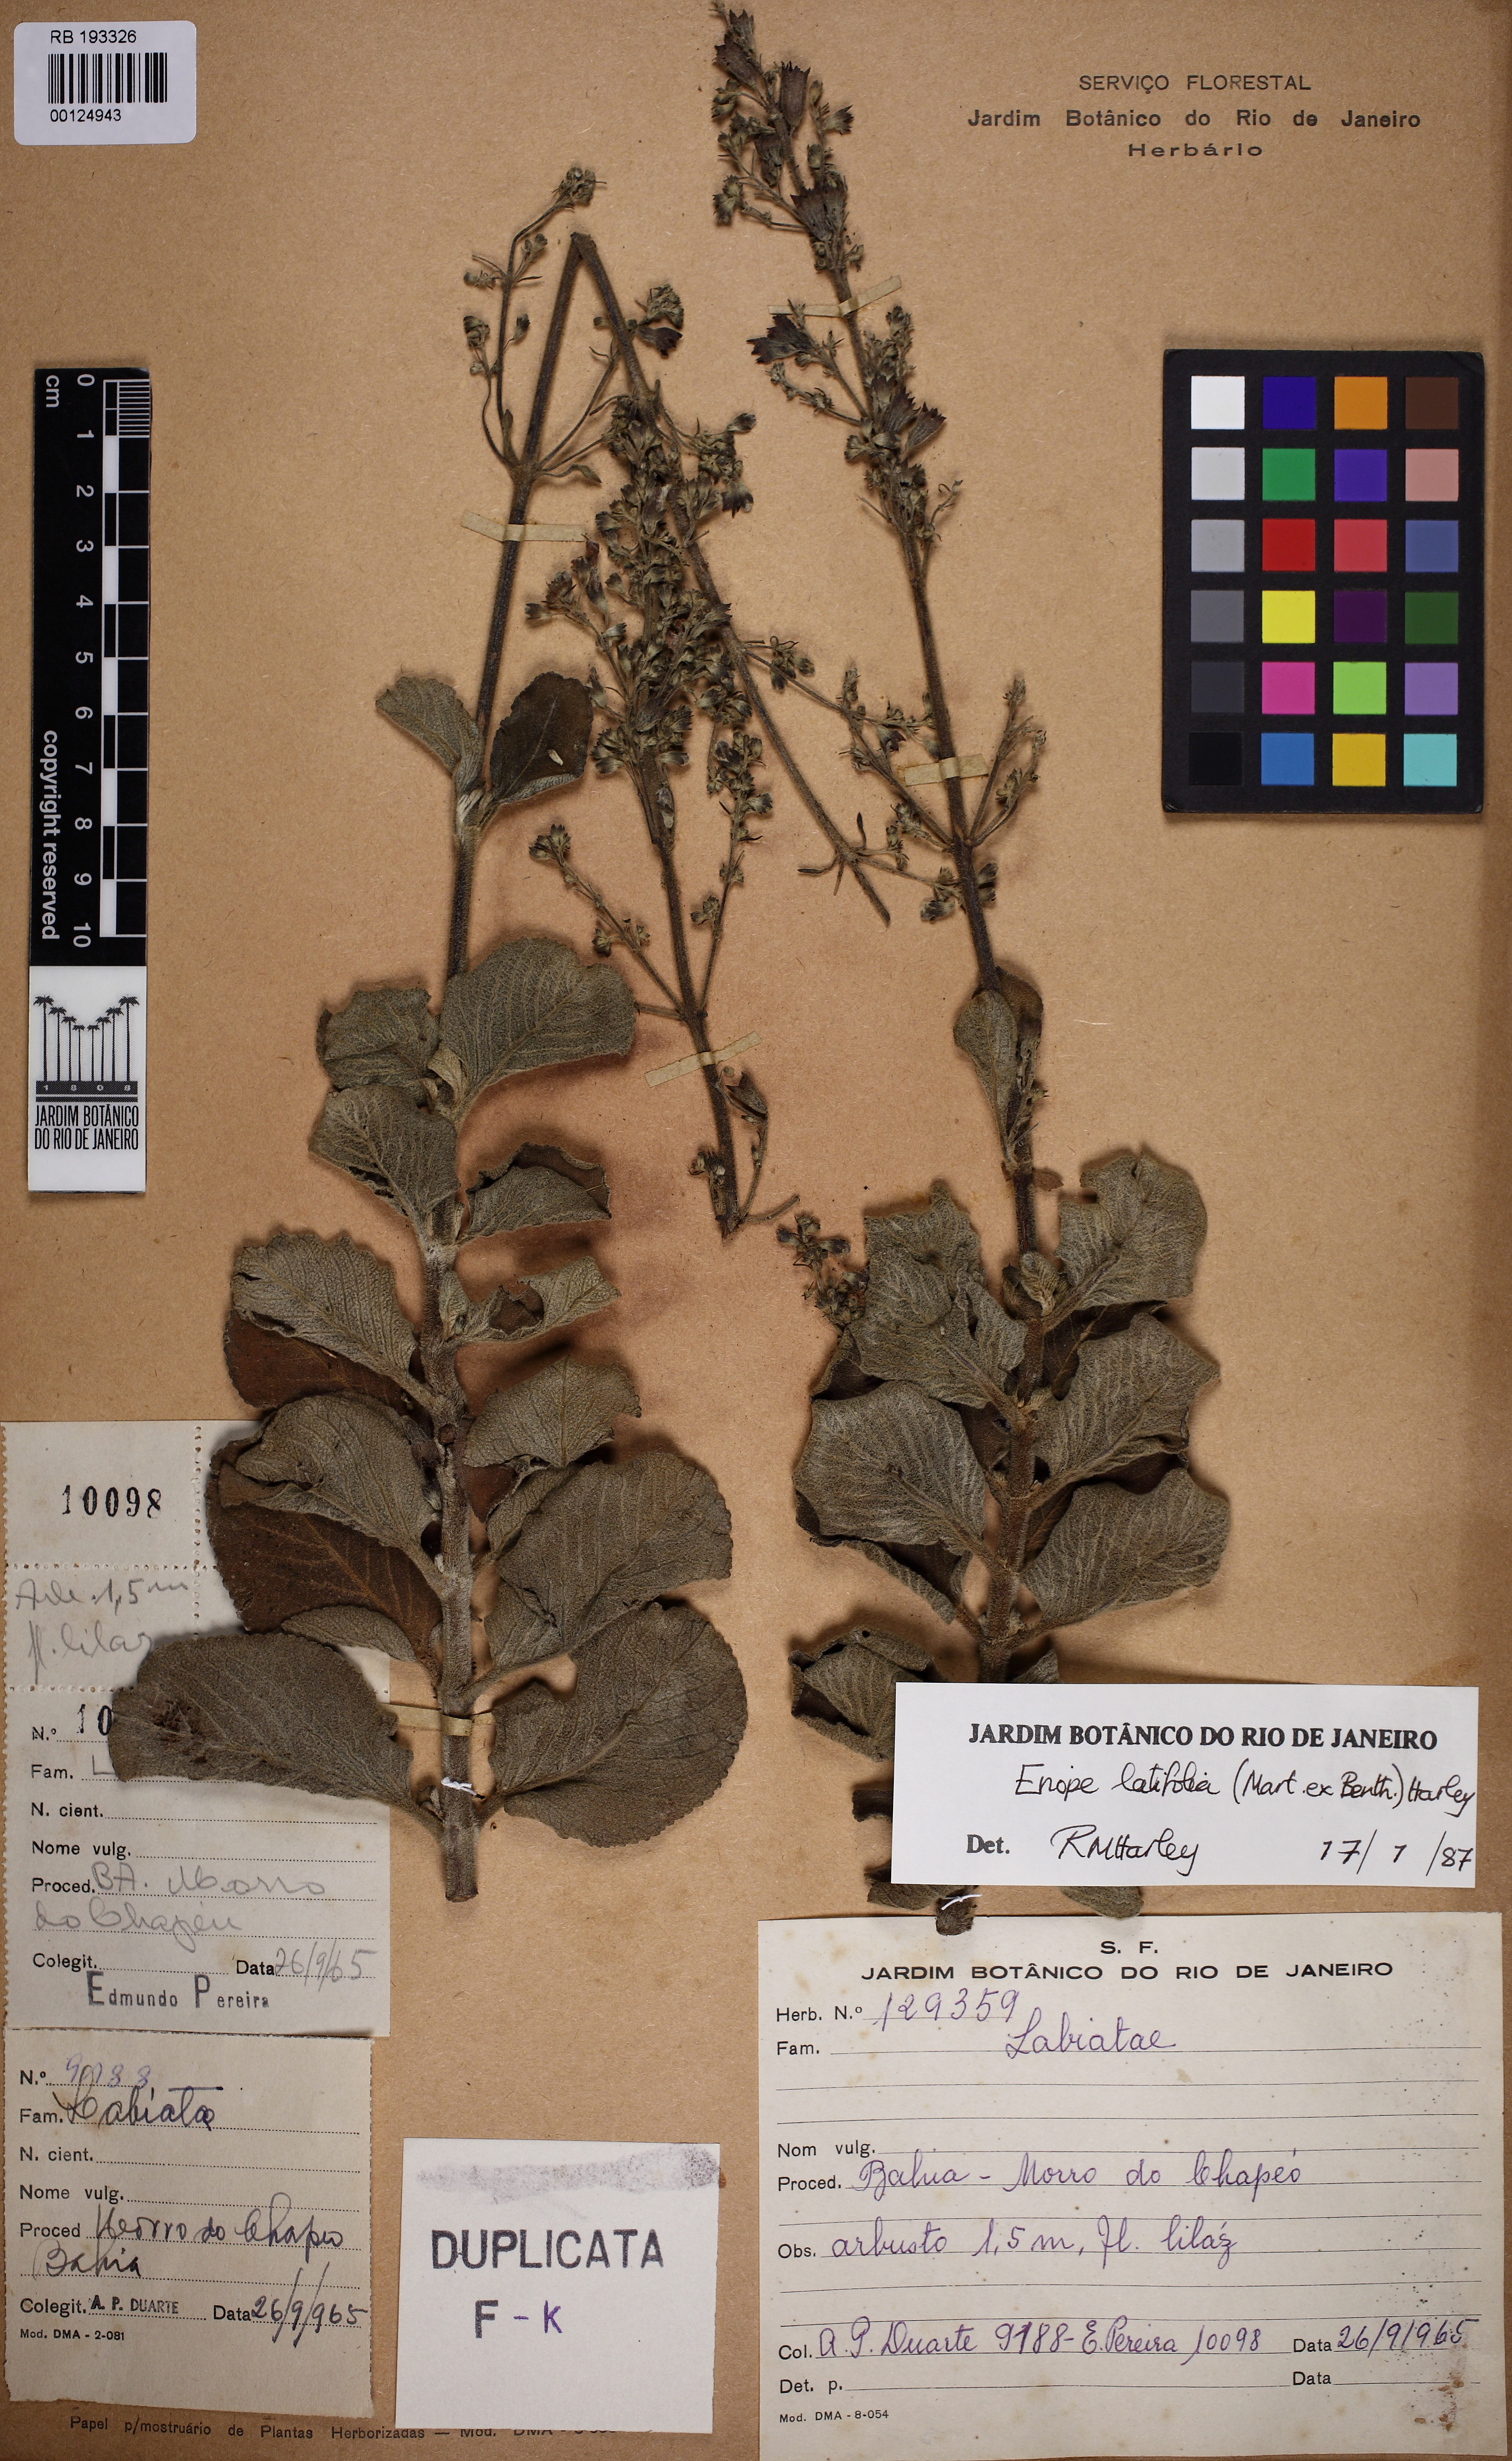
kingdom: Plantae
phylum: Tracheophyta
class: Magnoliopsida
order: Lamiales
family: Lamiaceae
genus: Eriope
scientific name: Eriope latifolia
